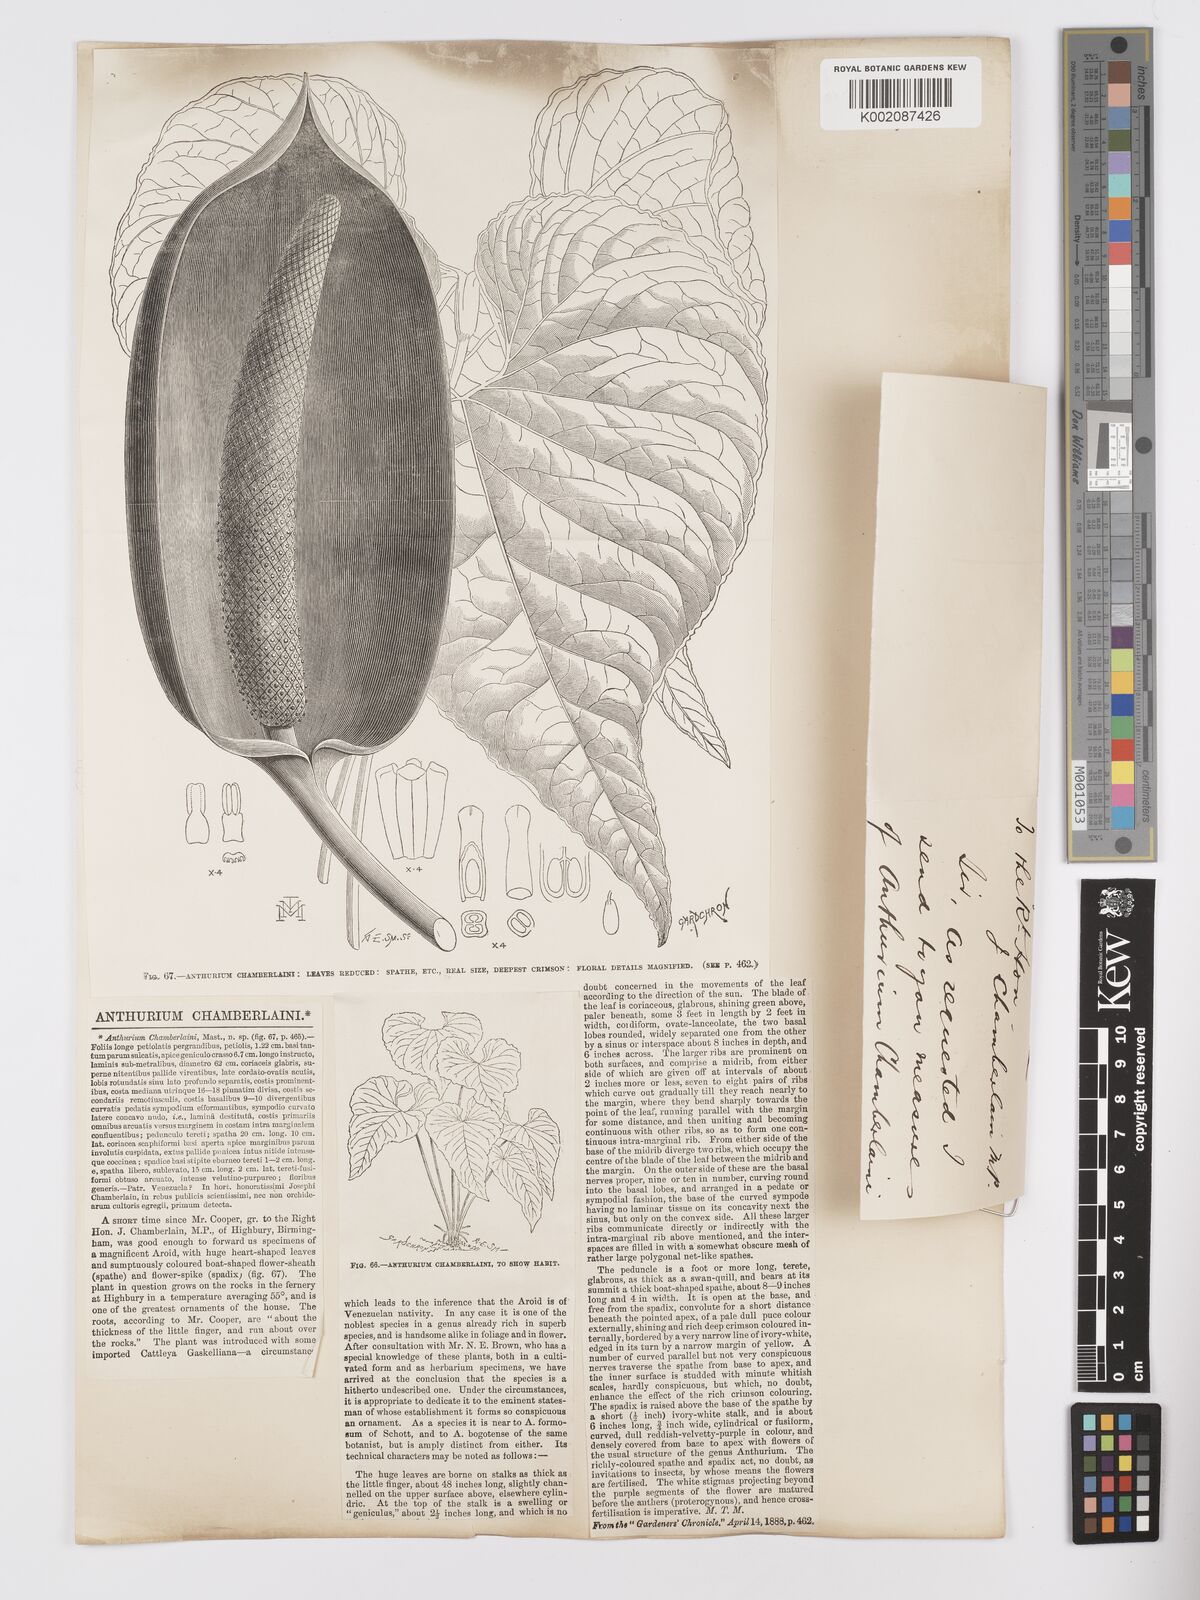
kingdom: Plantae
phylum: Tracheophyta
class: Liliopsida
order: Alismatales
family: Araceae
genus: Anthurium
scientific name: Anthurium chamberlainii
